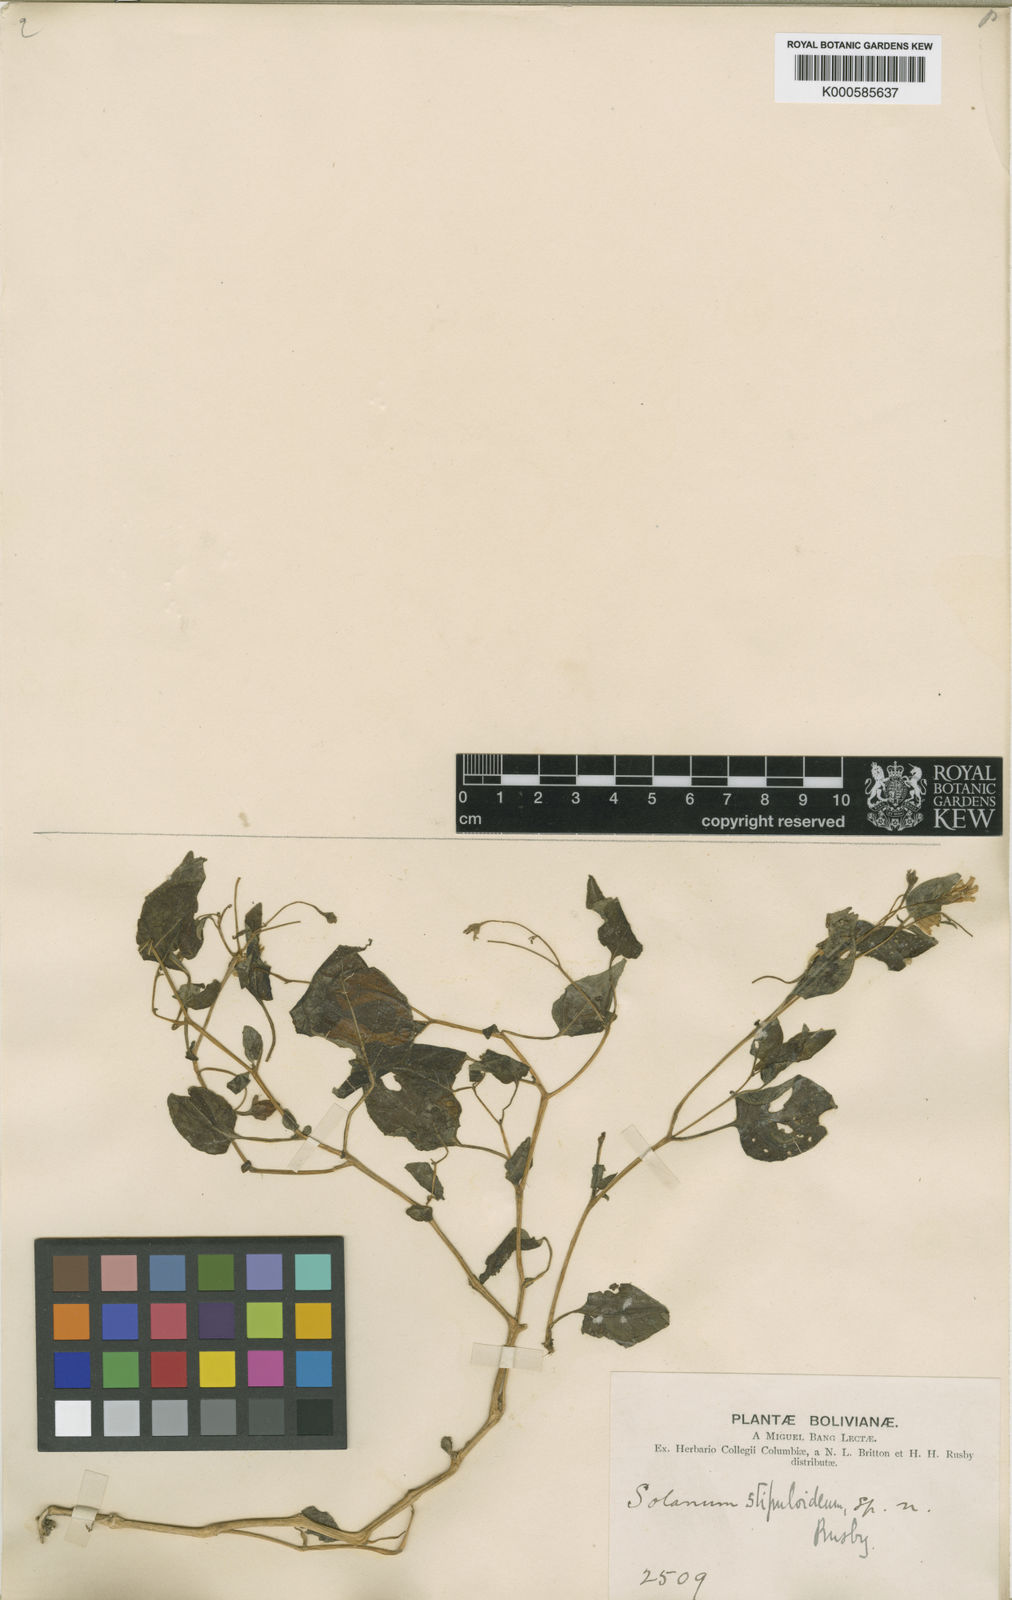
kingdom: Plantae
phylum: Tracheophyta
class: Magnoliopsida
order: Solanales
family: Solanaceae
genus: Solanum
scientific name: Solanum stipuloideum
